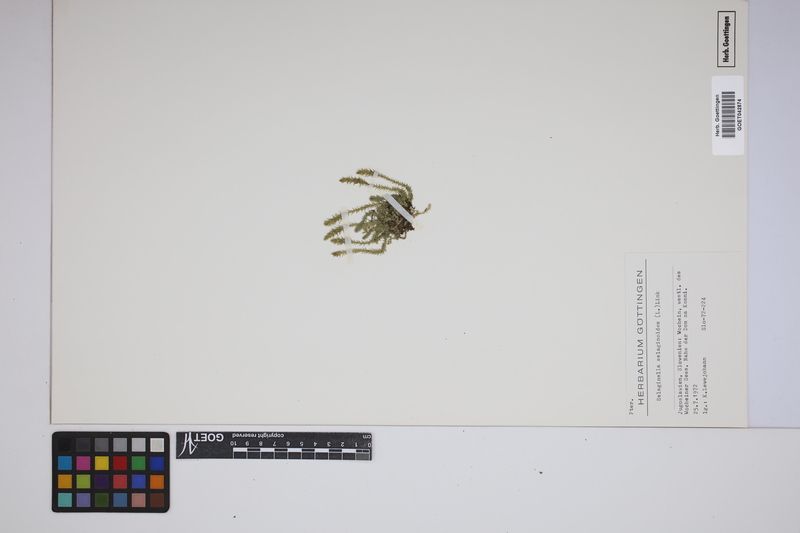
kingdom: Plantae
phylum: Tracheophyta
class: Lycopodiopsida
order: Selaginellales
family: Selaginellaceae
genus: Selaginella
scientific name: Selaginella selaginoides
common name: Prickly mountain-moss
